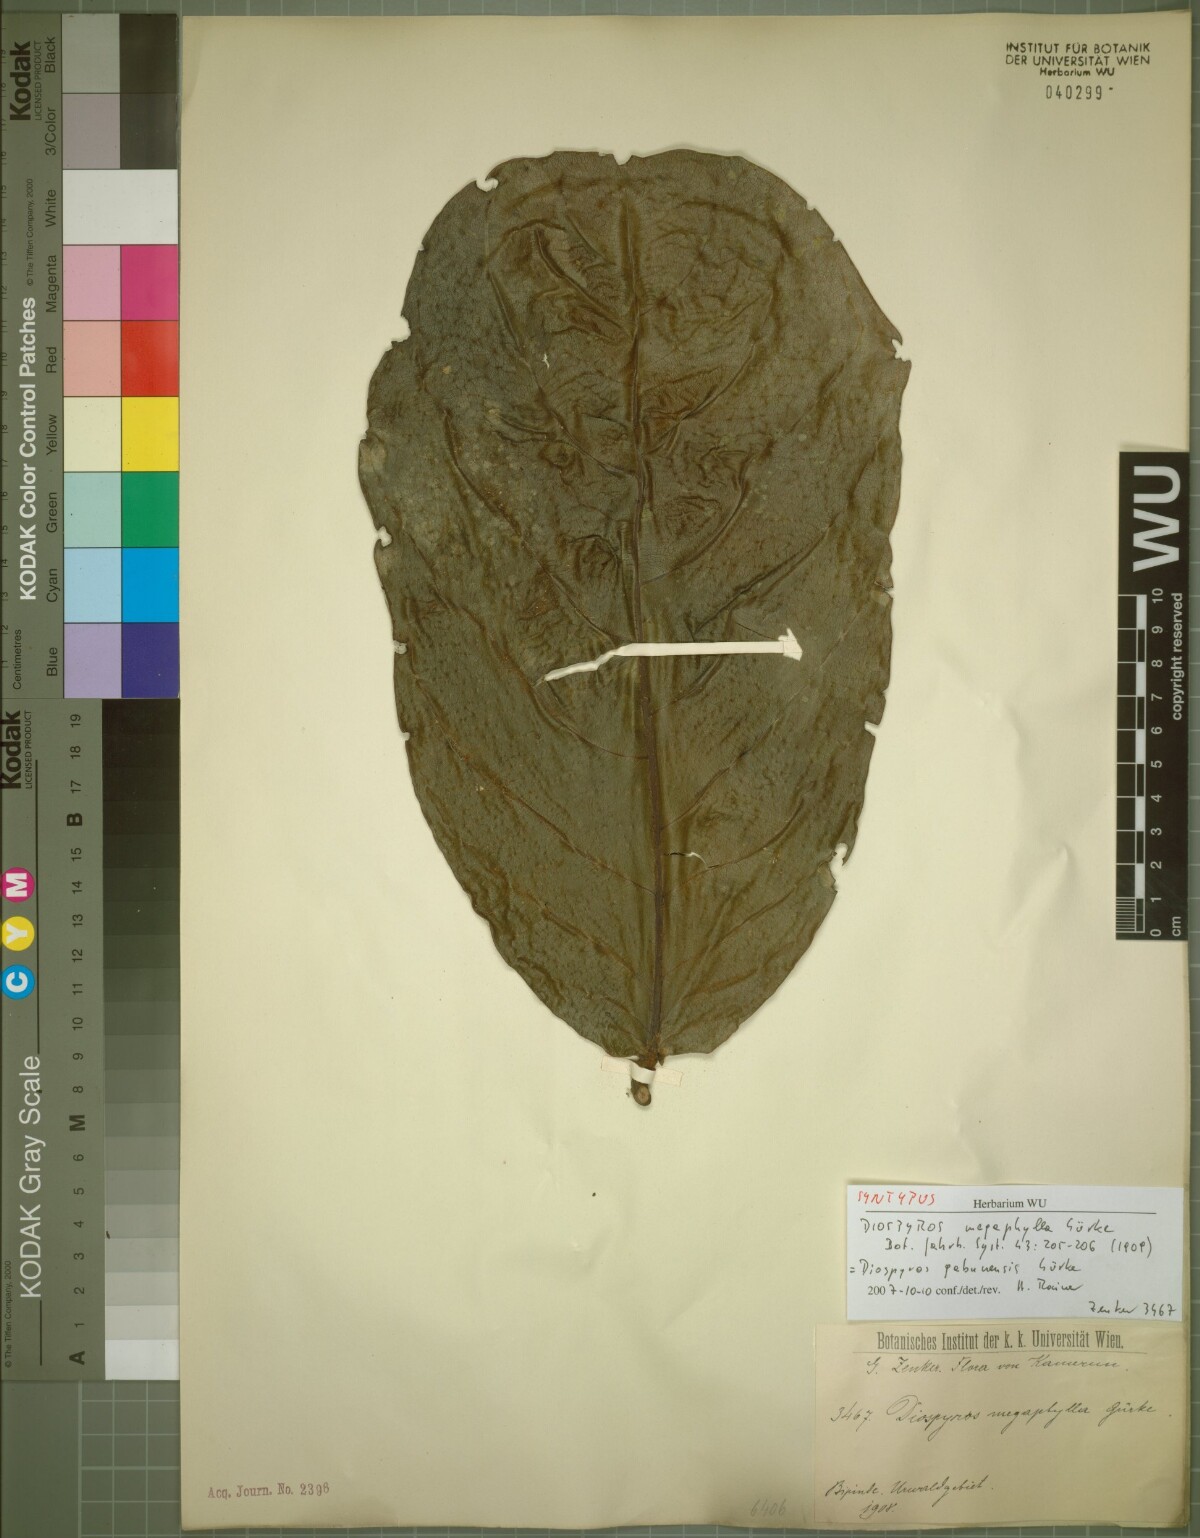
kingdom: Plantae
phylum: Tracheophyta
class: Magnoliopsida
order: Ericales
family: Ebenaceae
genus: Diospyros
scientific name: Diospyros gabunensis
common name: Flint bark tree
